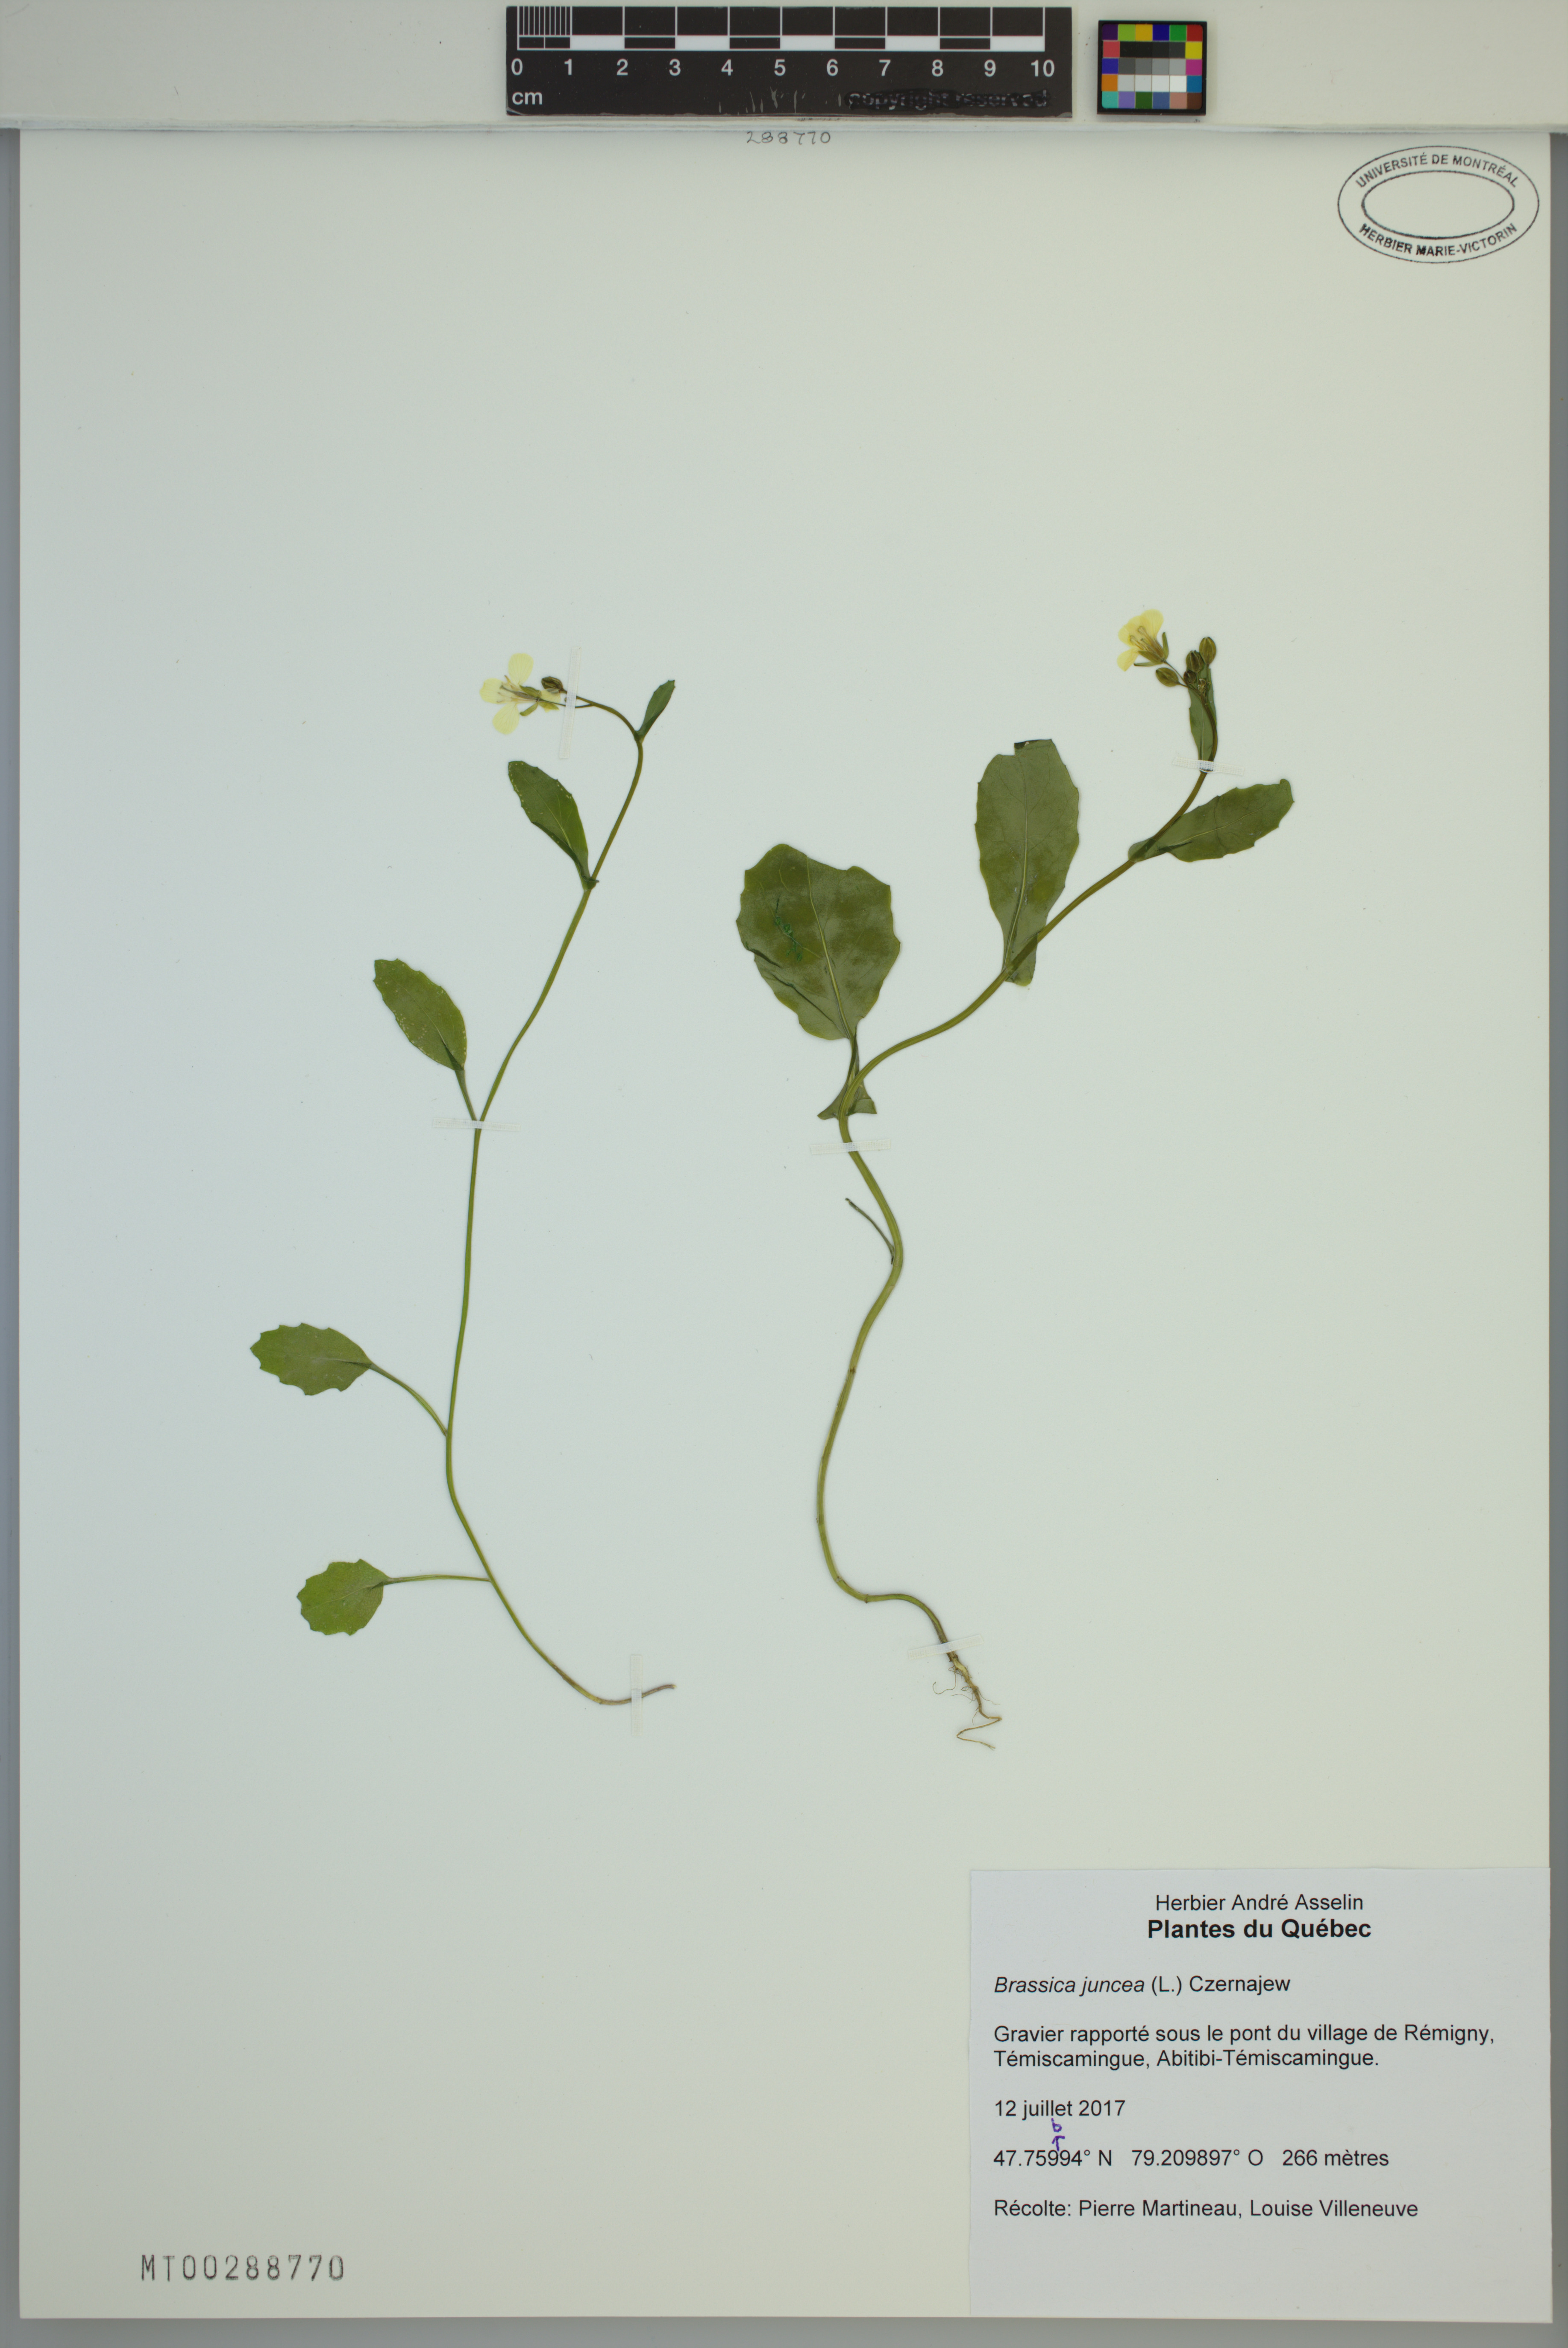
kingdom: Plantae
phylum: Tracheophyta
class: Magnoliopsida
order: Brassicales
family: Brassicaceae
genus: Brassica
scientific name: Brassica juncea
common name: Brown mustard
